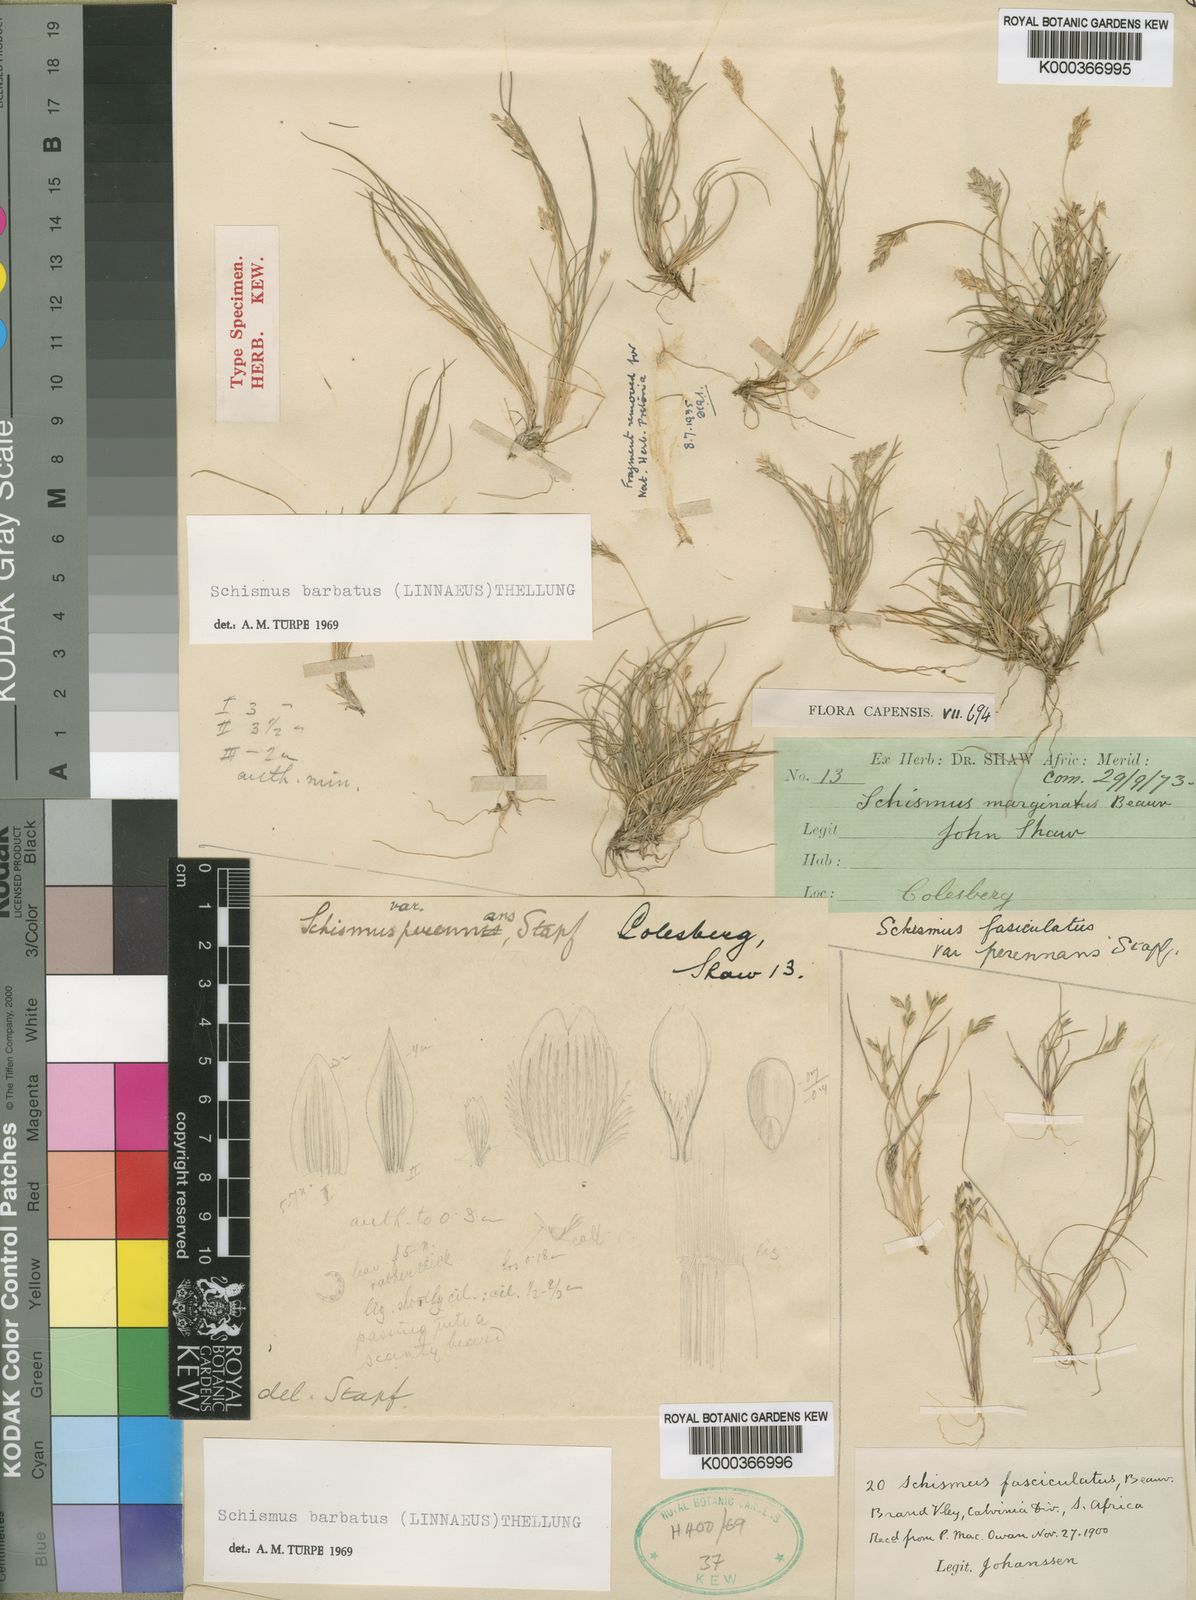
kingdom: Plantae
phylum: Tracheophyta
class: Liliopsida
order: Poales
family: Poaceae
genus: Schismus
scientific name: Schismus barbatus
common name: Kelch-grass
